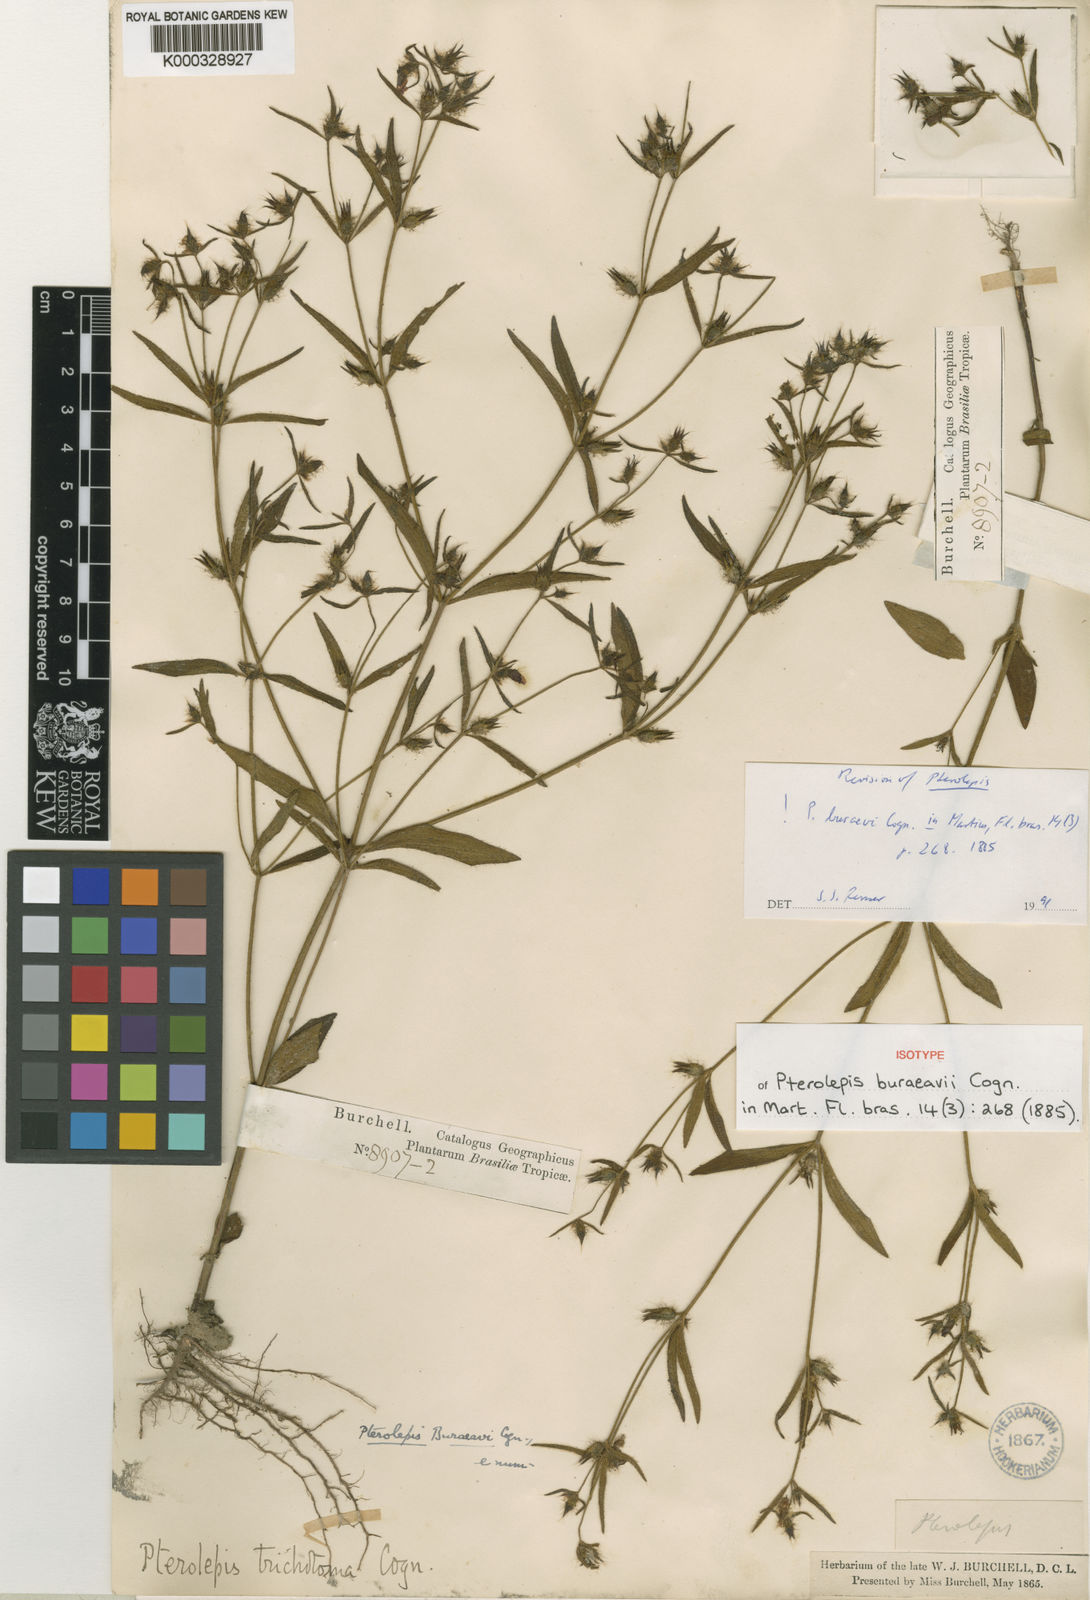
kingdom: Plantae
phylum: Tracheophyta
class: Magnoliopsida
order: Myrtales
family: Melastomataceae
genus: Pterolepis
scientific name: Pterolepis buraeavi
